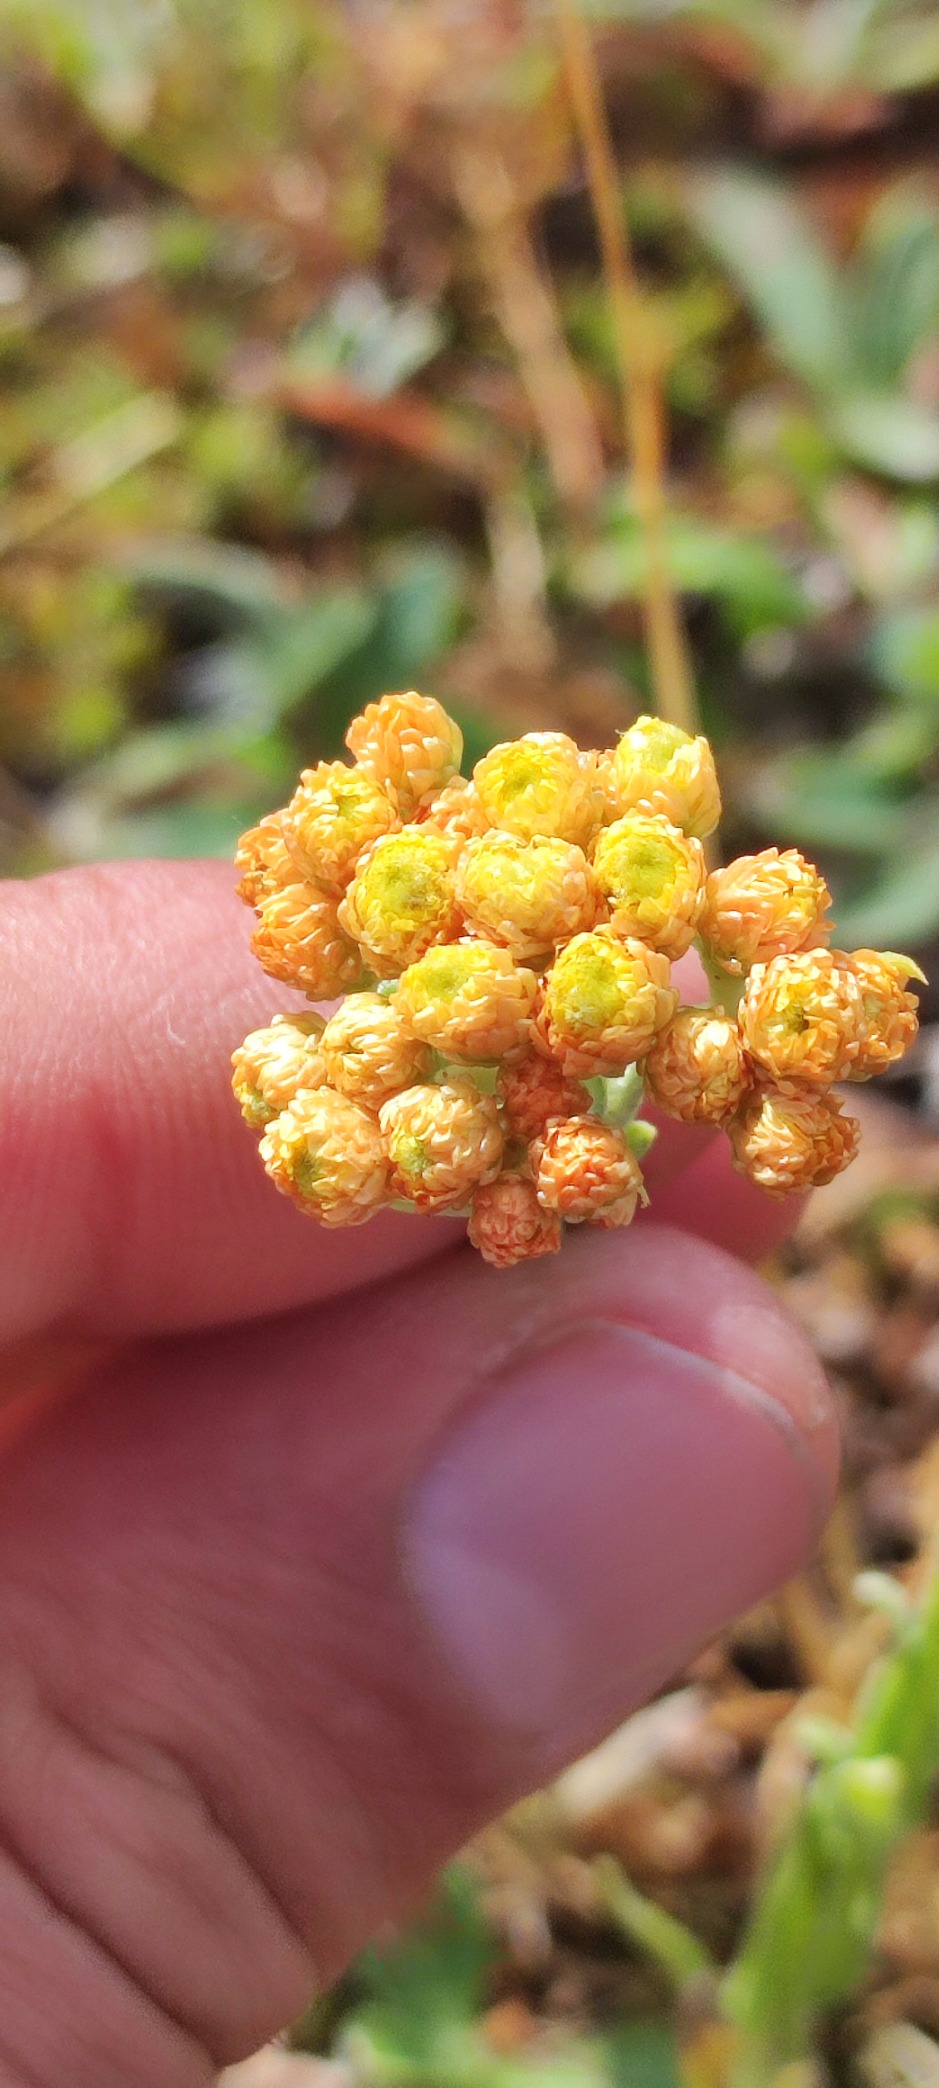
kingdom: Plantae
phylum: Tracheophyta
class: Magnoliopsida
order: Asterales
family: Asteraceae
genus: Helichrysum
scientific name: Helichrysum arenarium
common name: Gul evighedsblomst
